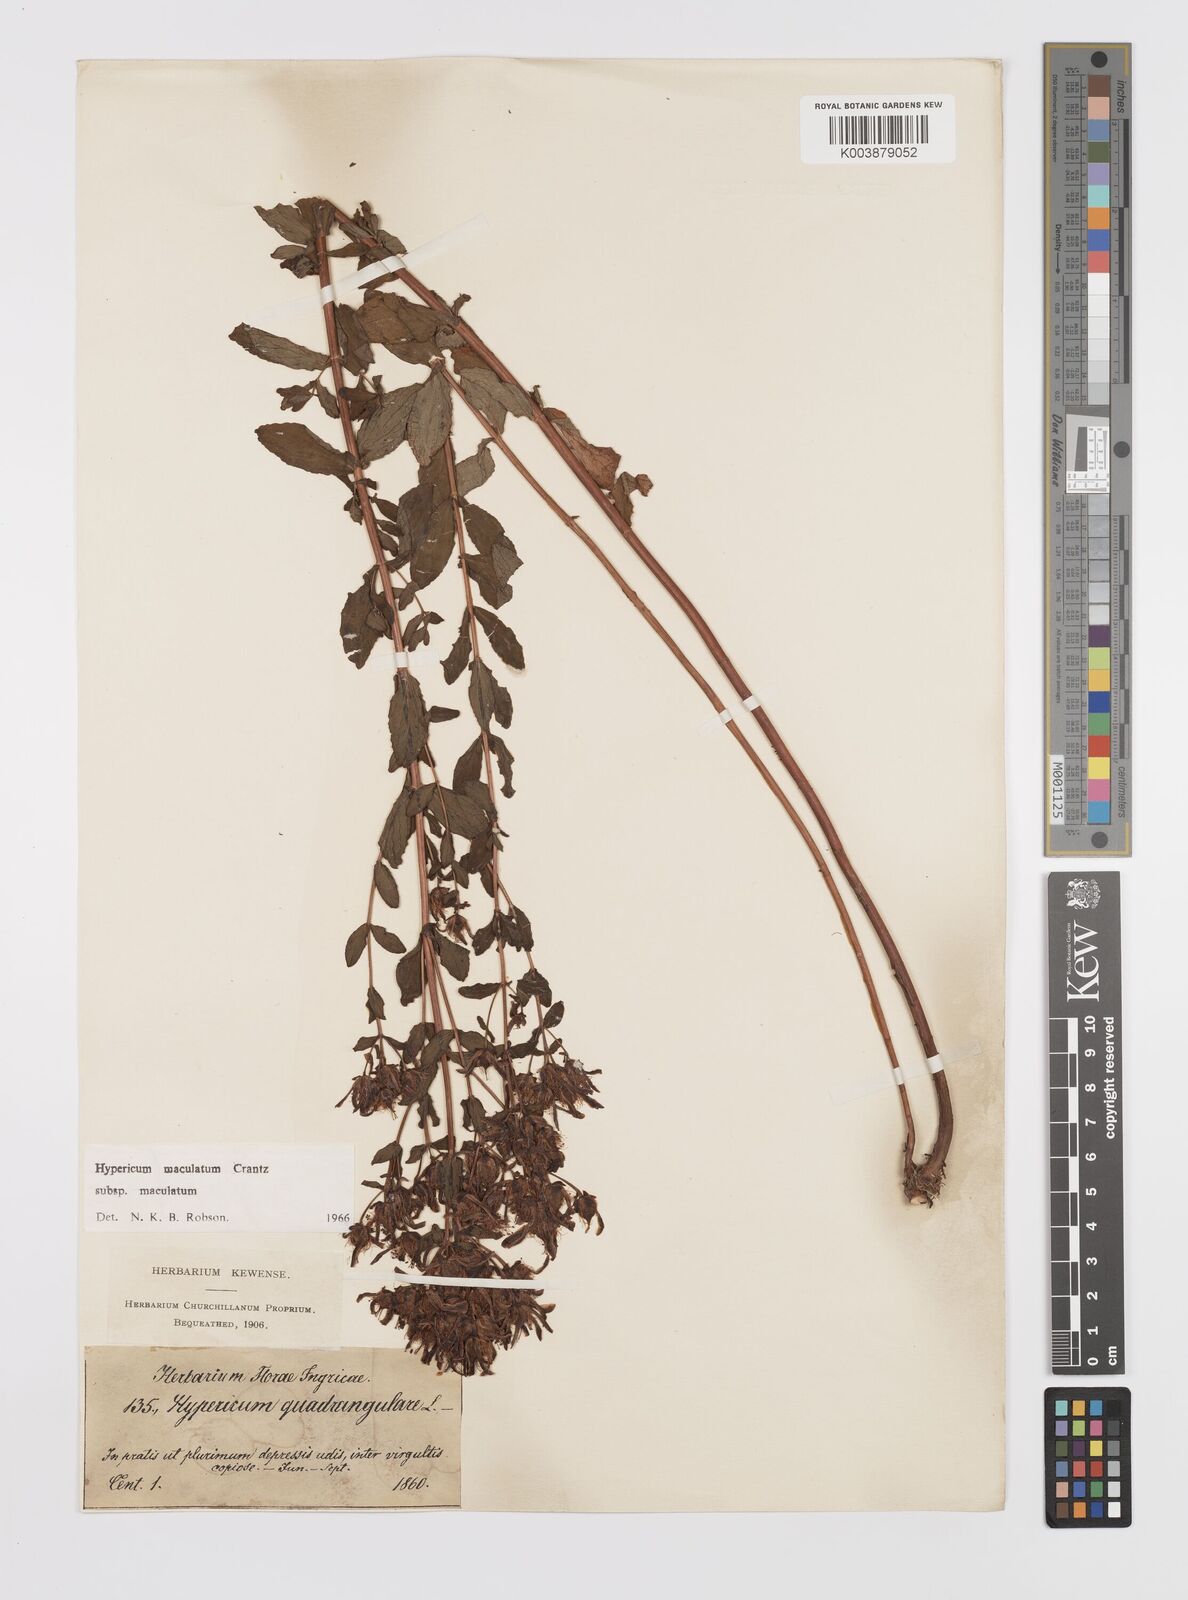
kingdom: Plantae
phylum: Tracheophyta
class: Magnoliopsida
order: Malpighiales
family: Hypericaceae
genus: Hypericum
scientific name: Hypericum maculatum
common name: Imperforate st. john's-wort
